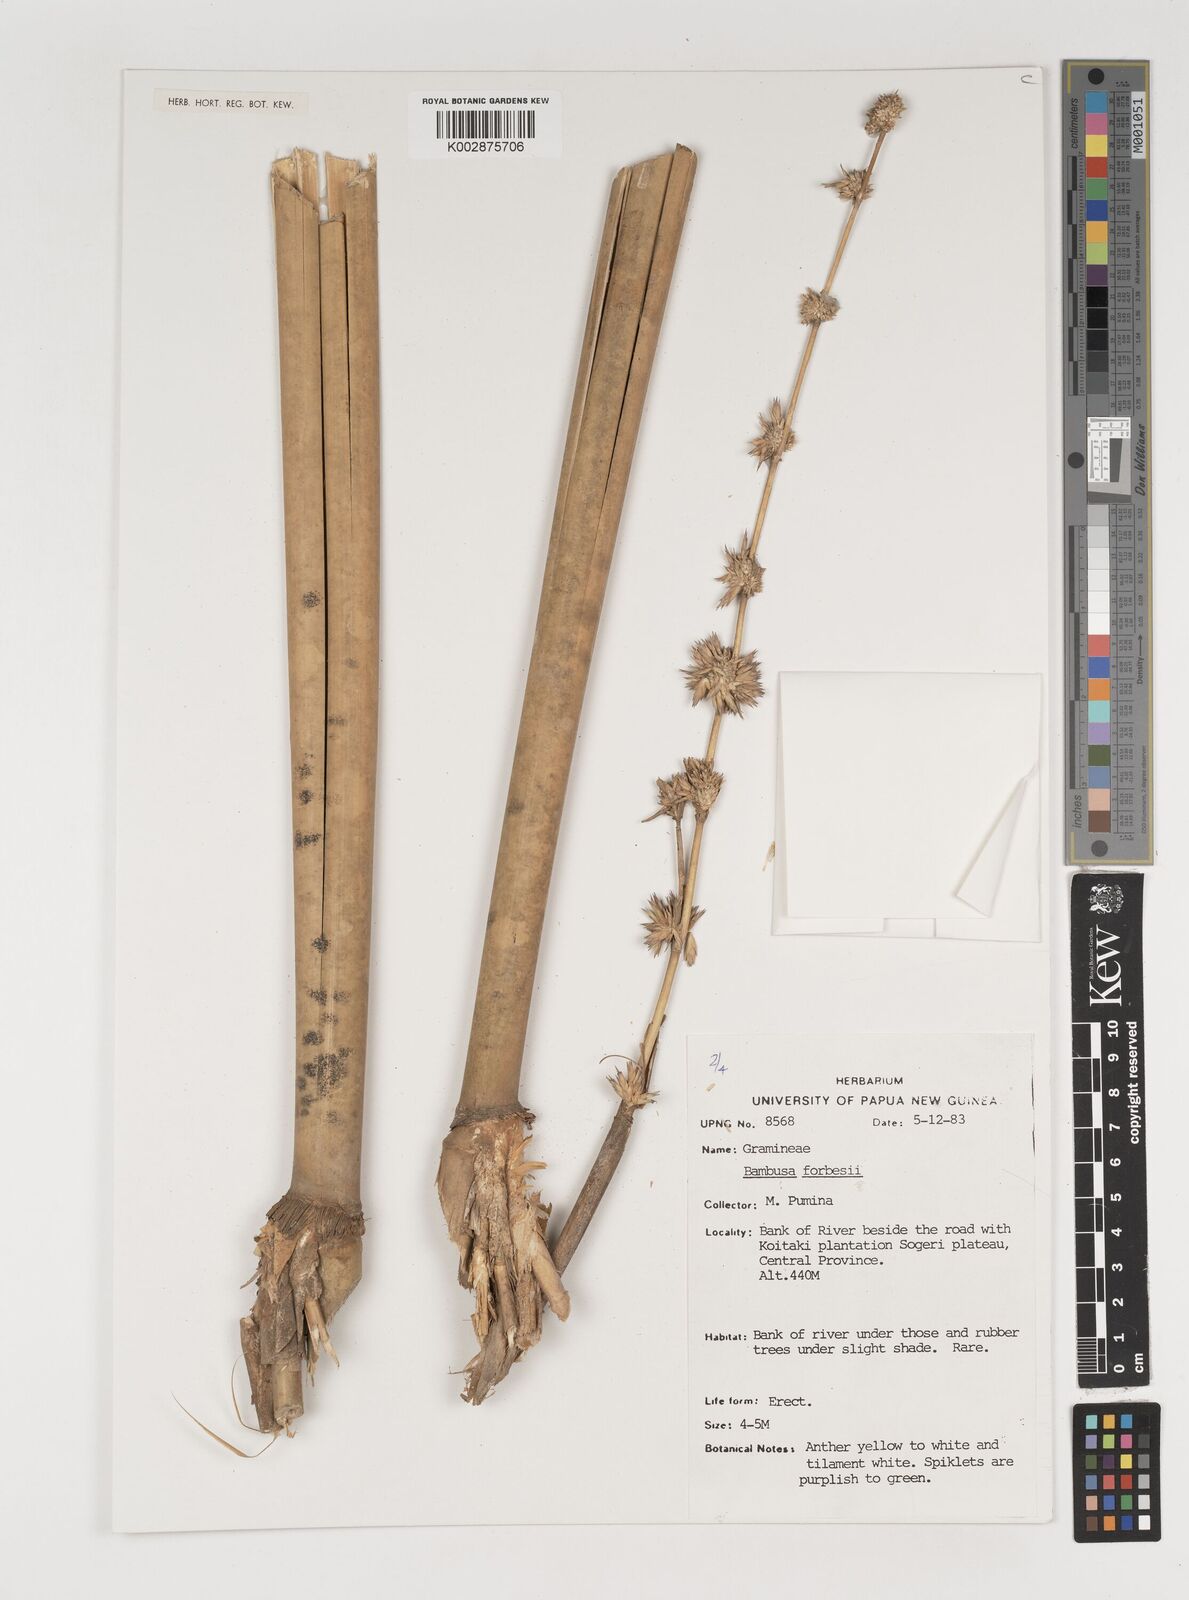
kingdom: Plantae
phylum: Tracheophyta
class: Liliopsida
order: Poales
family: Poaceae
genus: Neololeba
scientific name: Neololeba atra
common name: Cape bamboo
